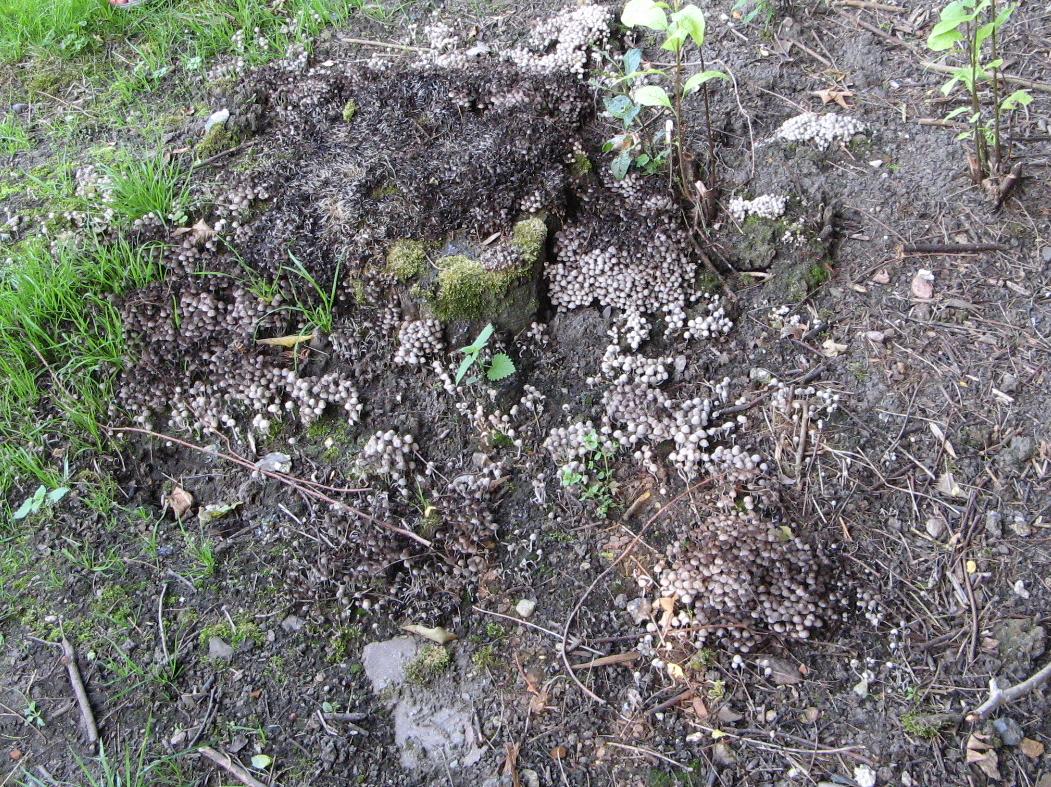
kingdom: Fungi
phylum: Basidiomycota
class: Agaricomycetes
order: Agaricales
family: Psathyrellaceae
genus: Coprinellus
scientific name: Coprinellus disseminatus
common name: bredsået blækhat
